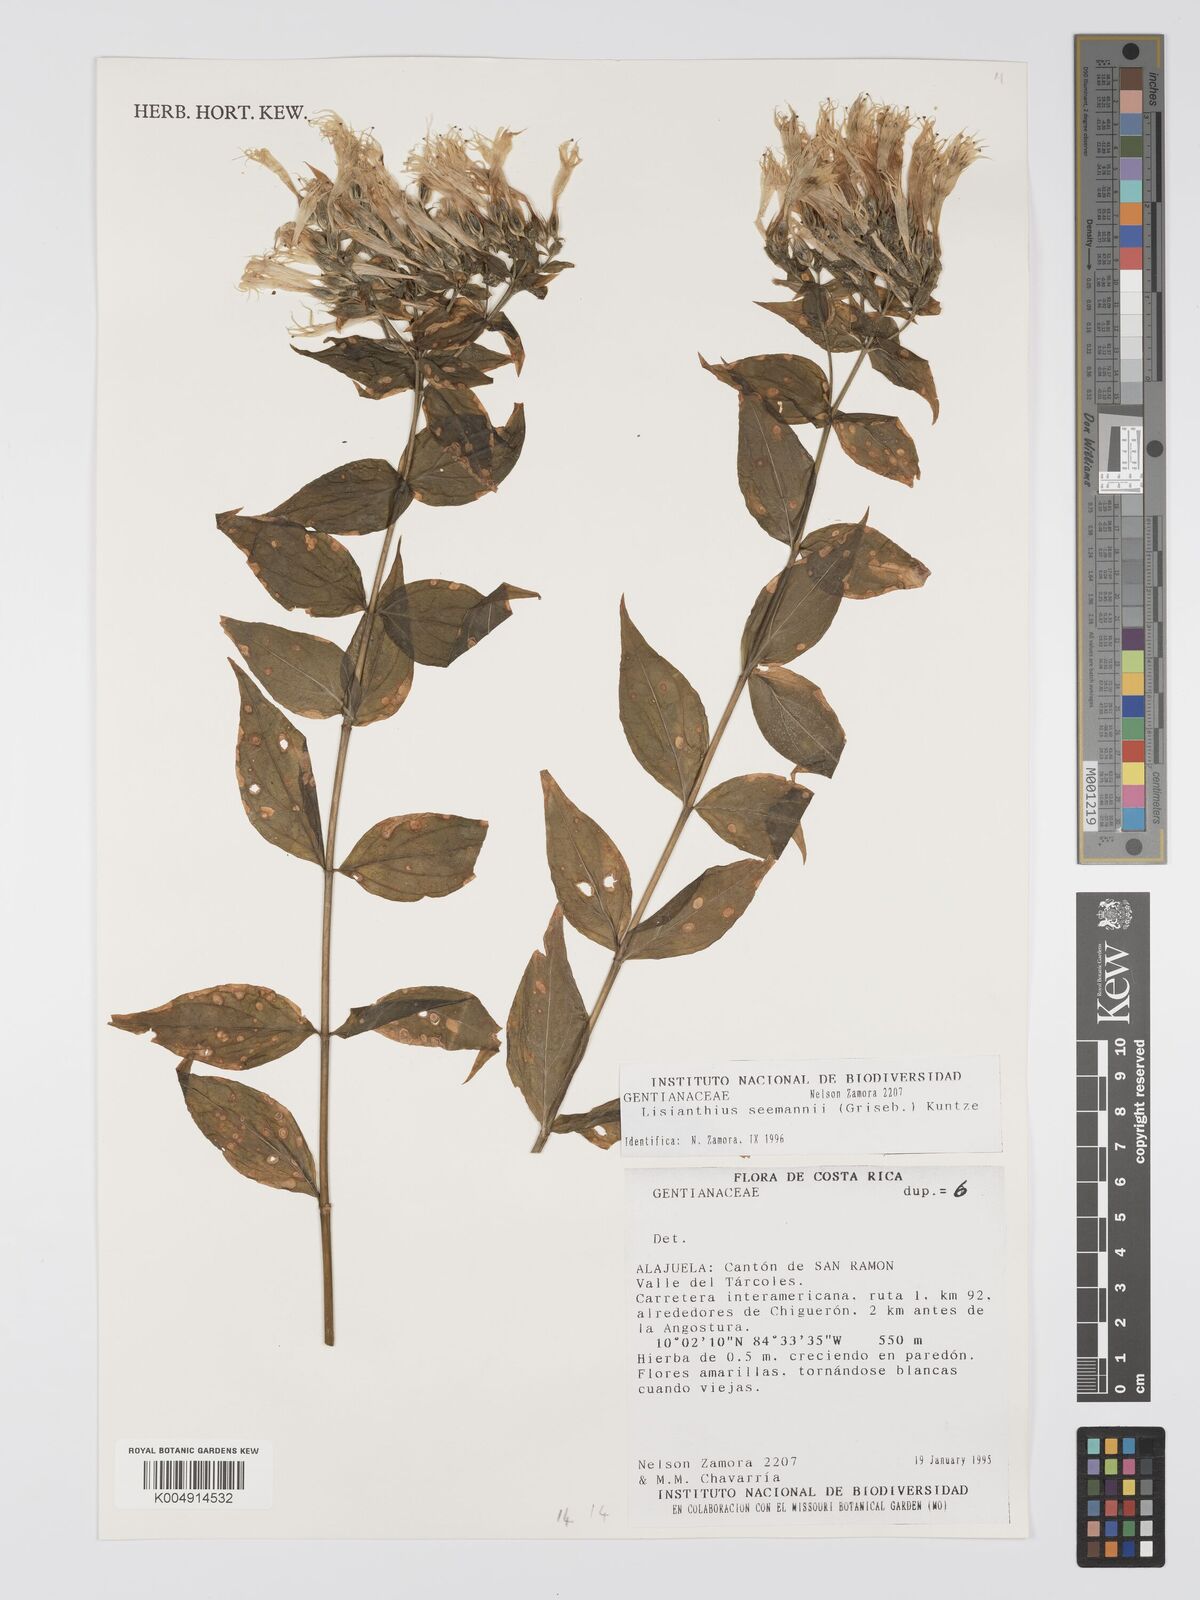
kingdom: Plantae
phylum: Tracheophyta
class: Magnoliopsida
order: Gentianales
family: Gentianaceae
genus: Lisianthus
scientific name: Lisianthus seemannii
